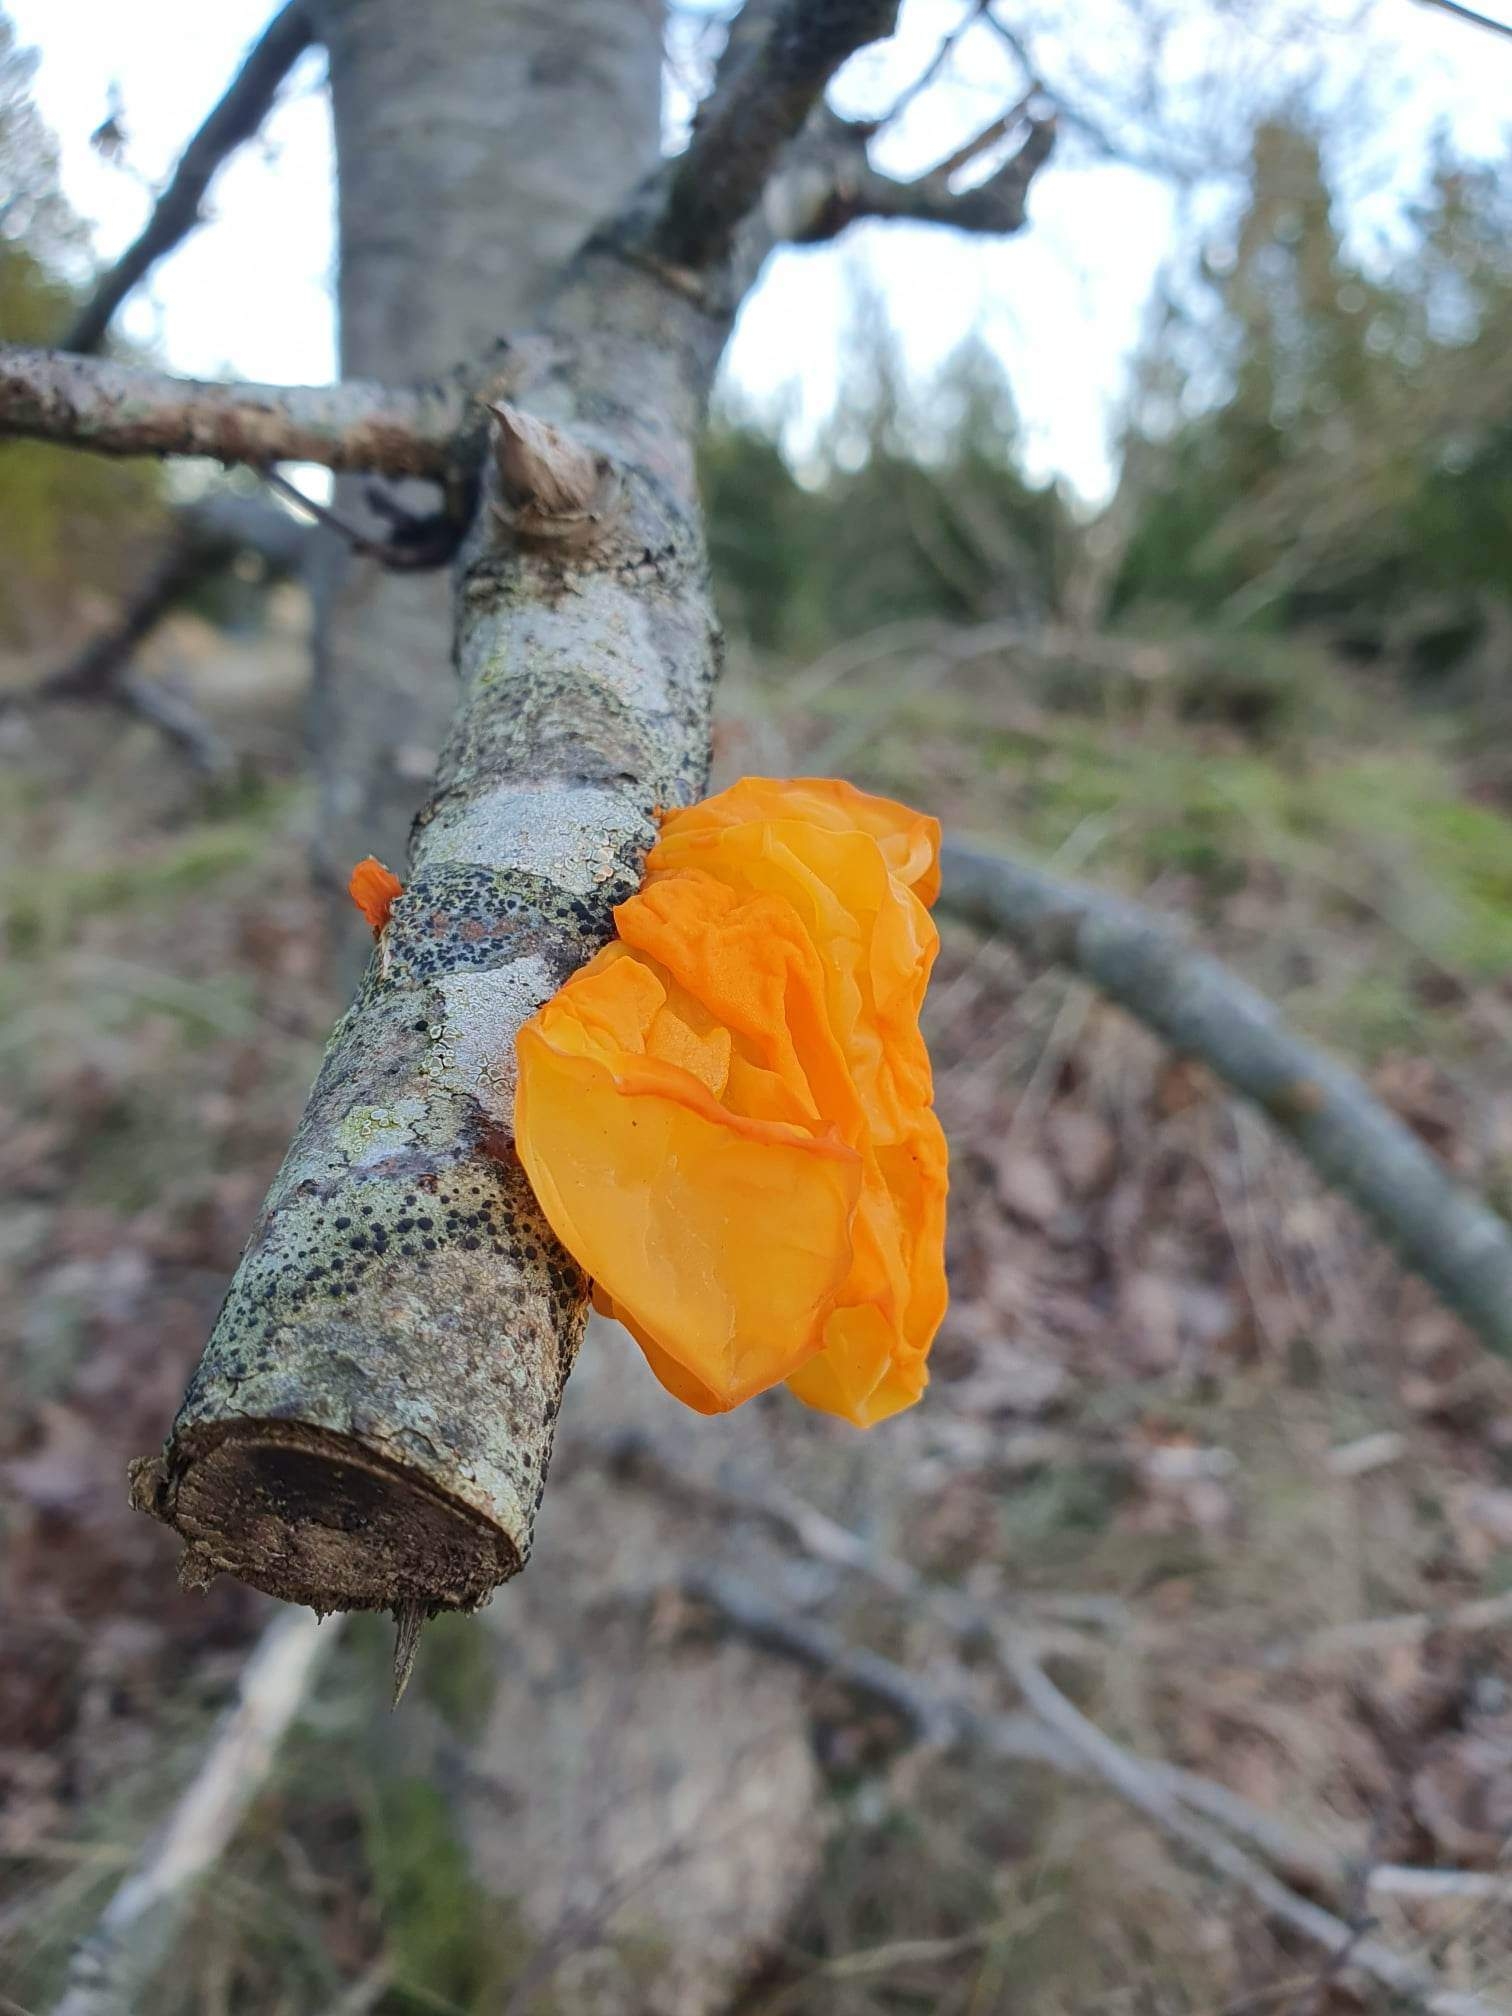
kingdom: Fungi
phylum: Basidiomycota
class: Tremellomycetes
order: Tremellales
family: Tremellaceae
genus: Tremella
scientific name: Tremella mesenterica
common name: gul bævresvamp
